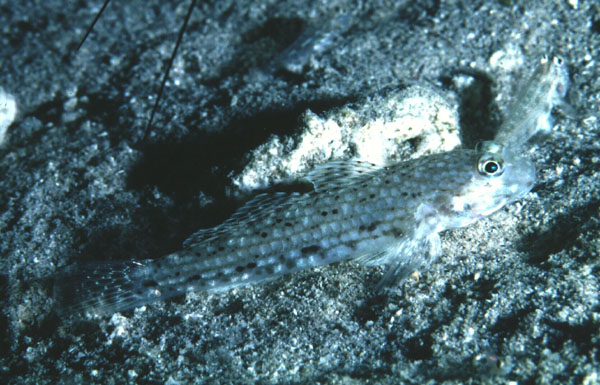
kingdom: Animalia
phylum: Chordata
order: Perciformes
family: Gobiidae
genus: Istigobius
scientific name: Istigobius decoratus
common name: Decorated goby
